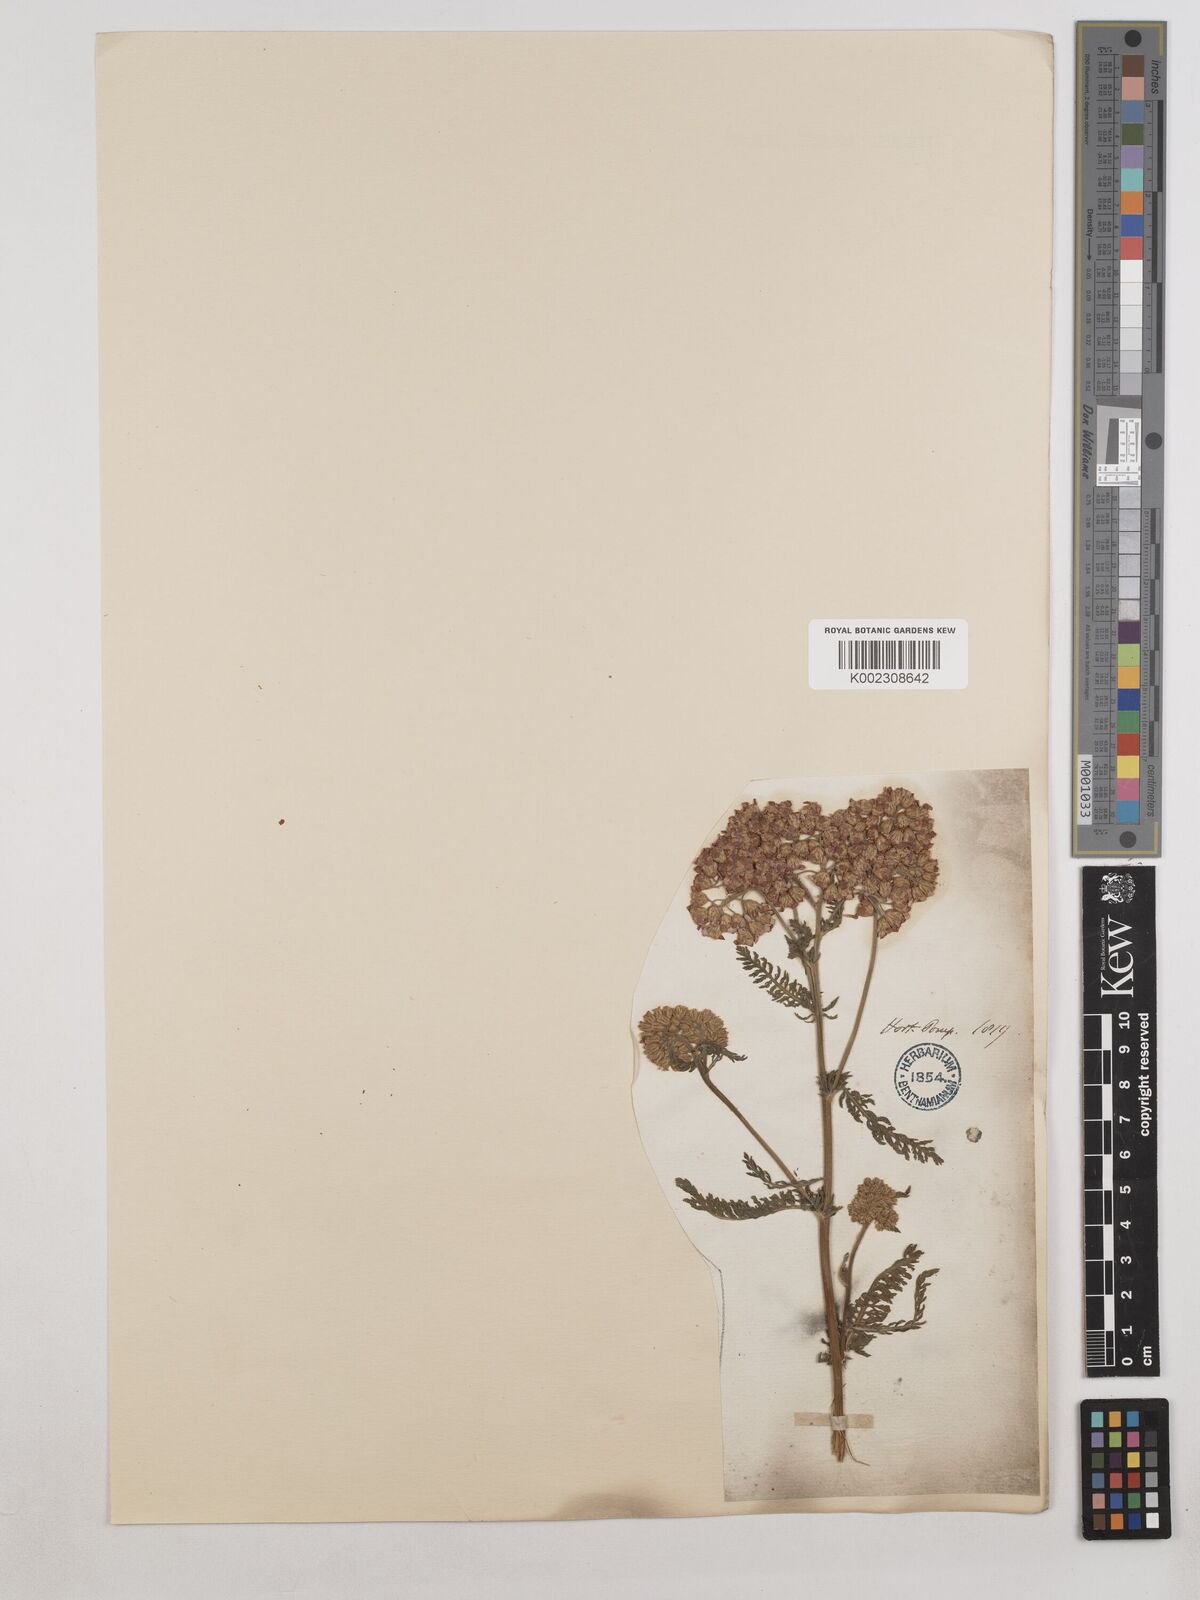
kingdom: Plantae
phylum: Tracheophyta
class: Magnoliopsida
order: Asterales
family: Asteraceae
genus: Achillea
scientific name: Achillea millefolium
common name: Yarrow
